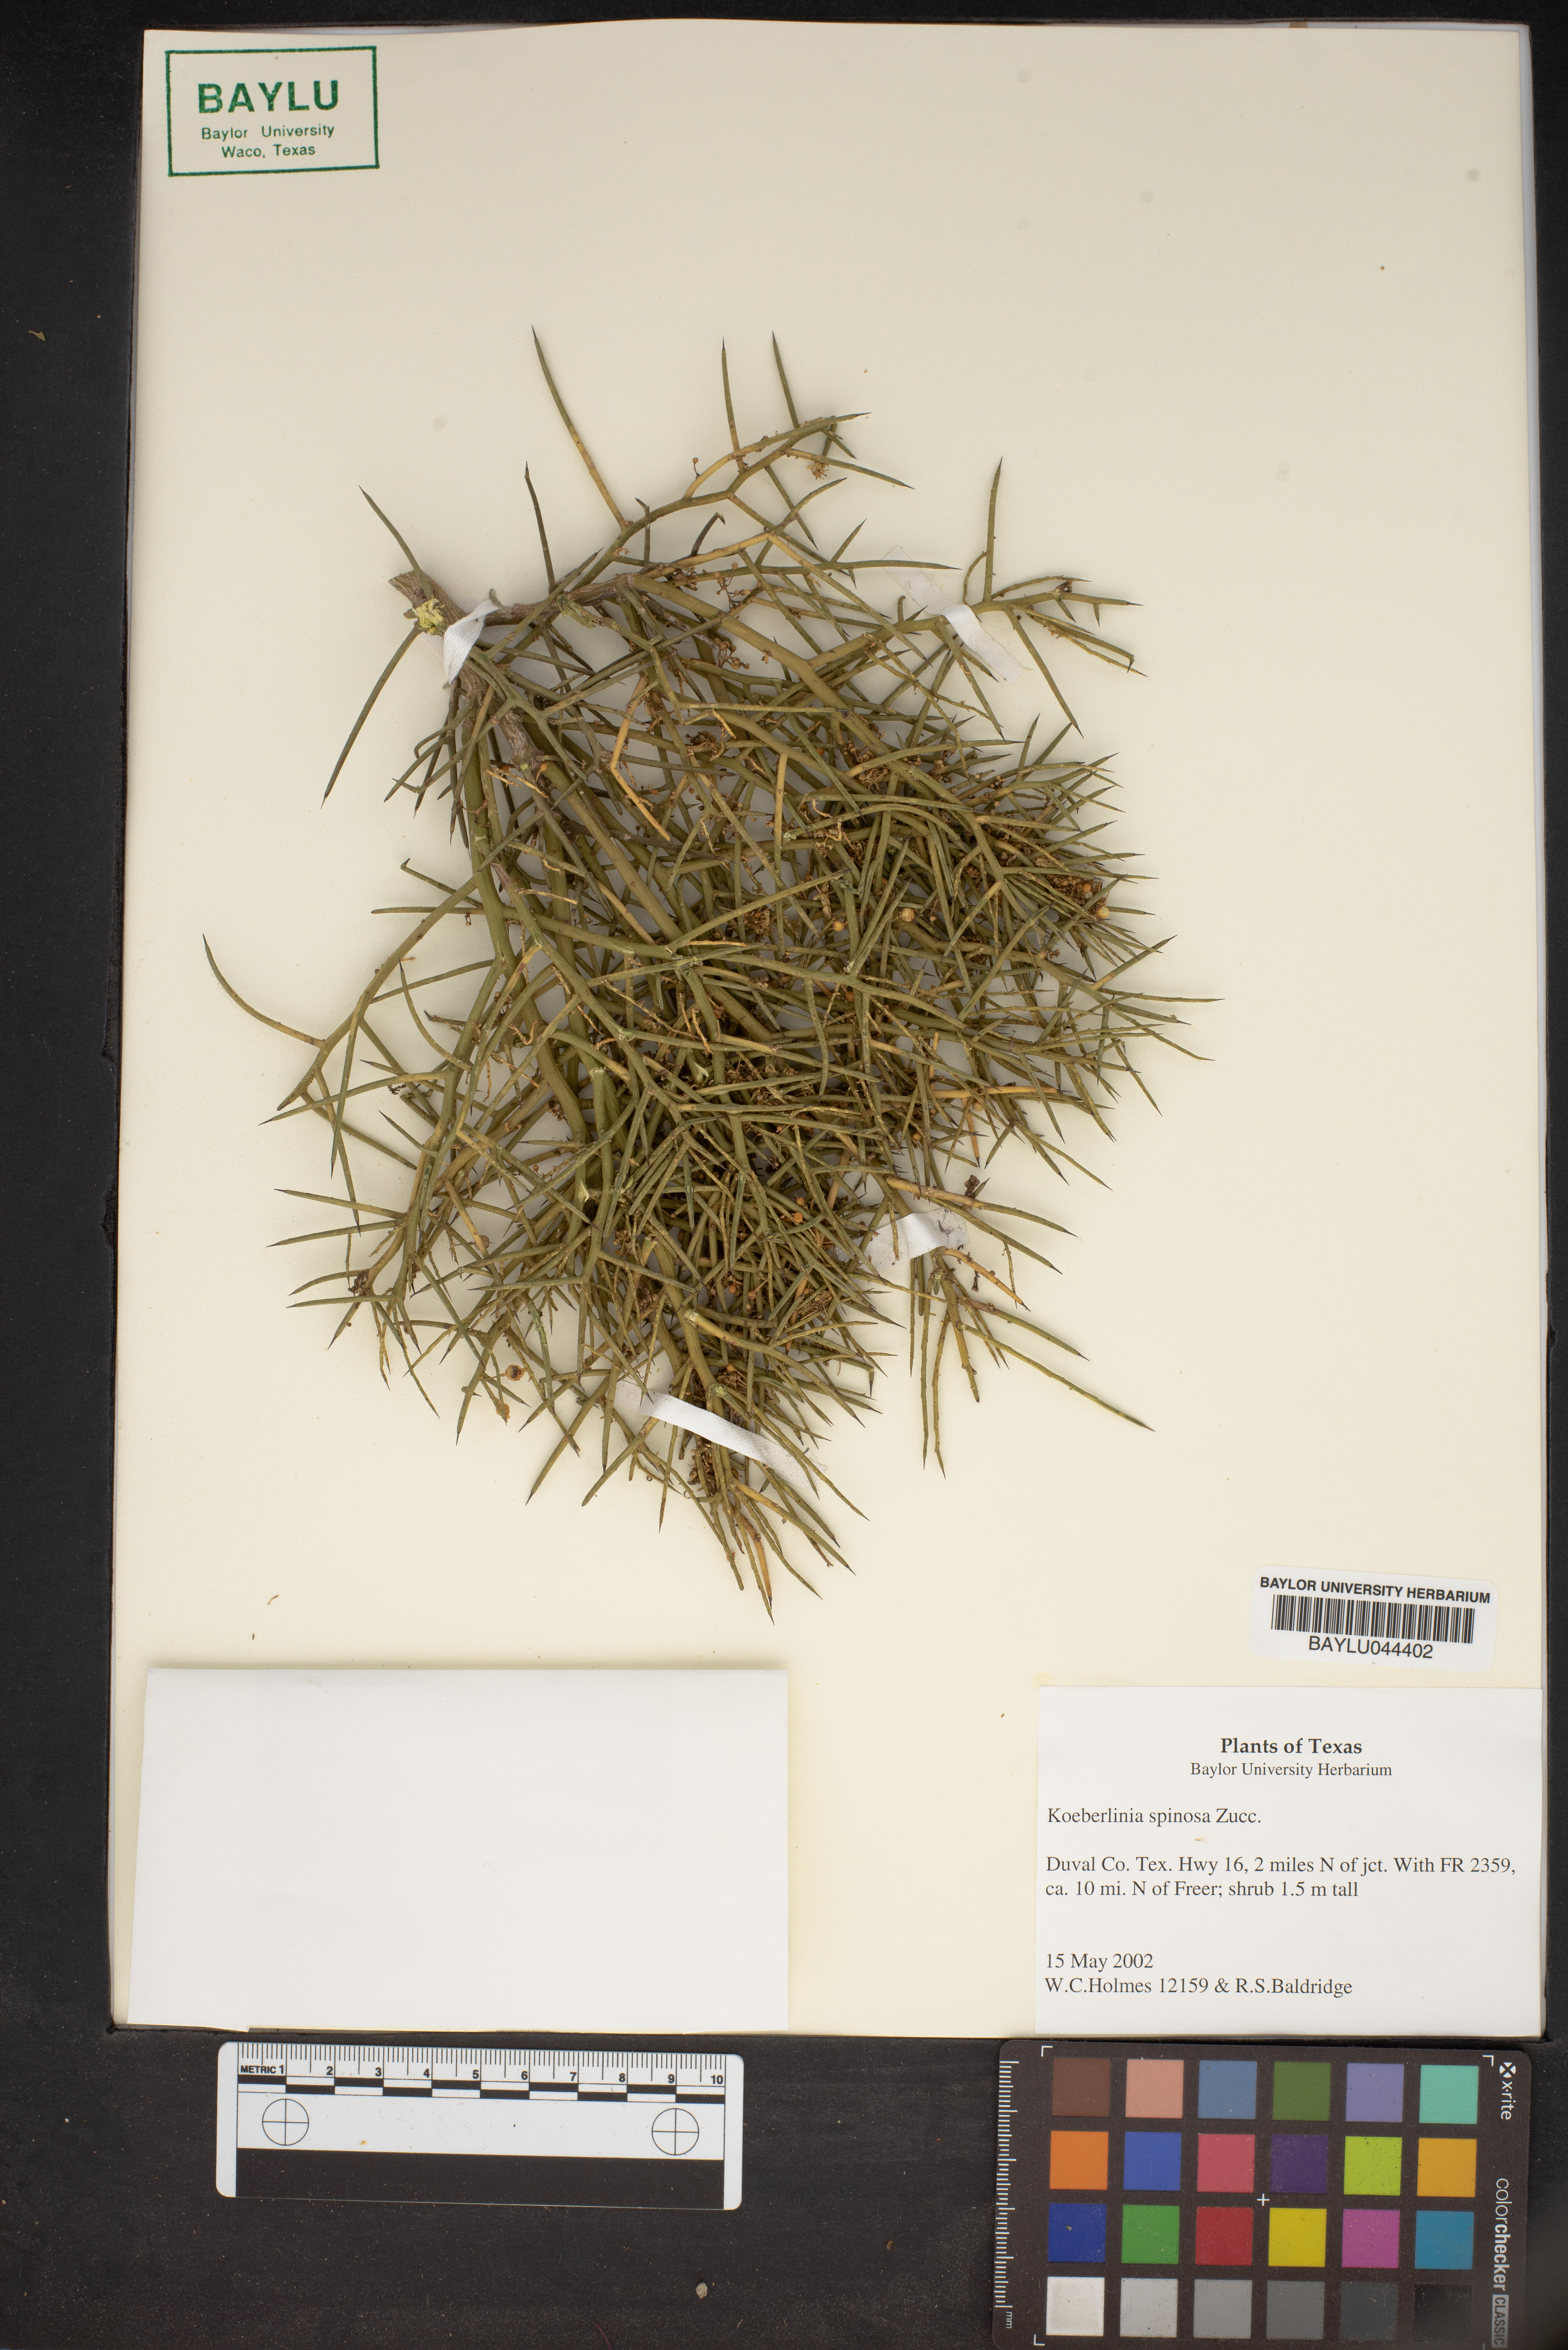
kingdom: Plantae
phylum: Tracheophyta
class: Magnoliopsida
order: Brassicales
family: Koeberliniaceae
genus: Koeberlinia
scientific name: Koeberlinia spinosa
